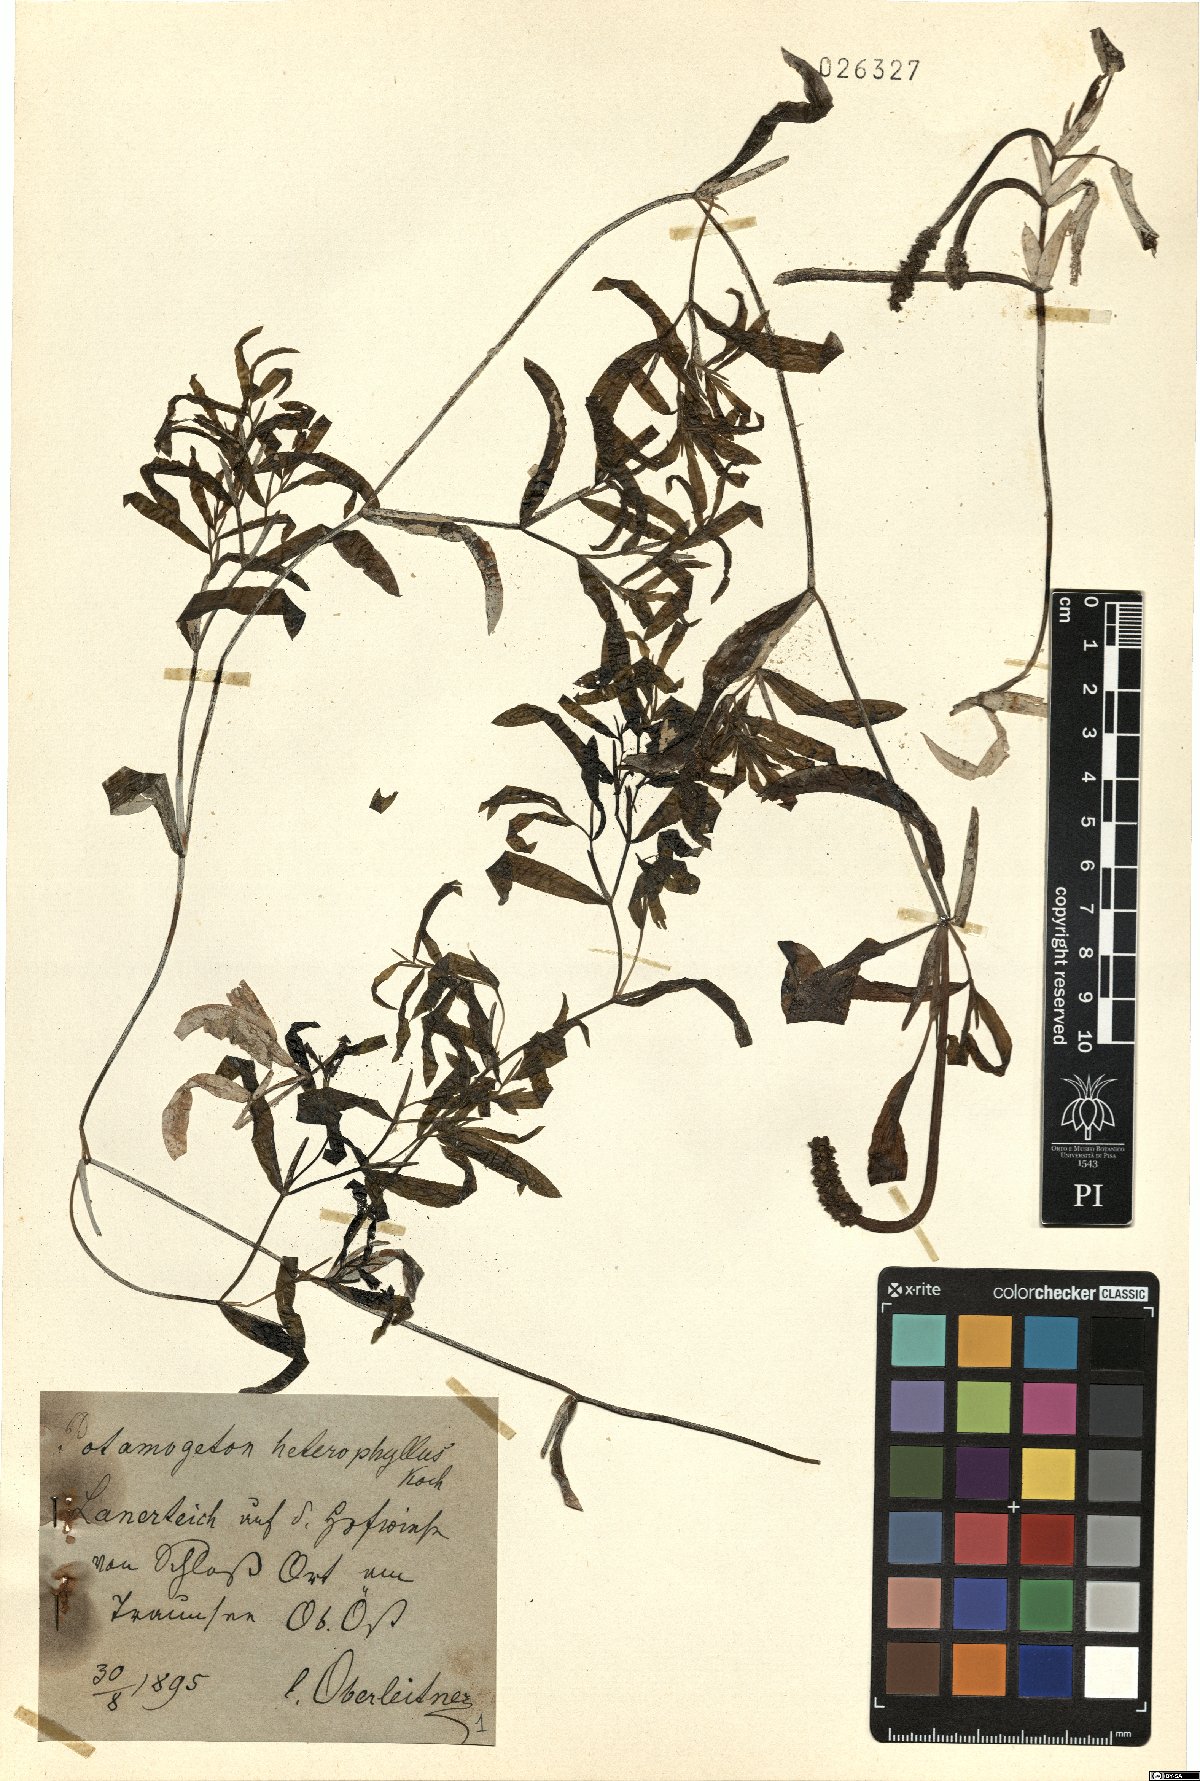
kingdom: Plantae
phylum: Tracheophyta
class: Liliopsida
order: Alismatales
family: Potamogetonaceae
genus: Potamogeton
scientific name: Potamogeton gramineus
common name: Various-leaved pondweed
